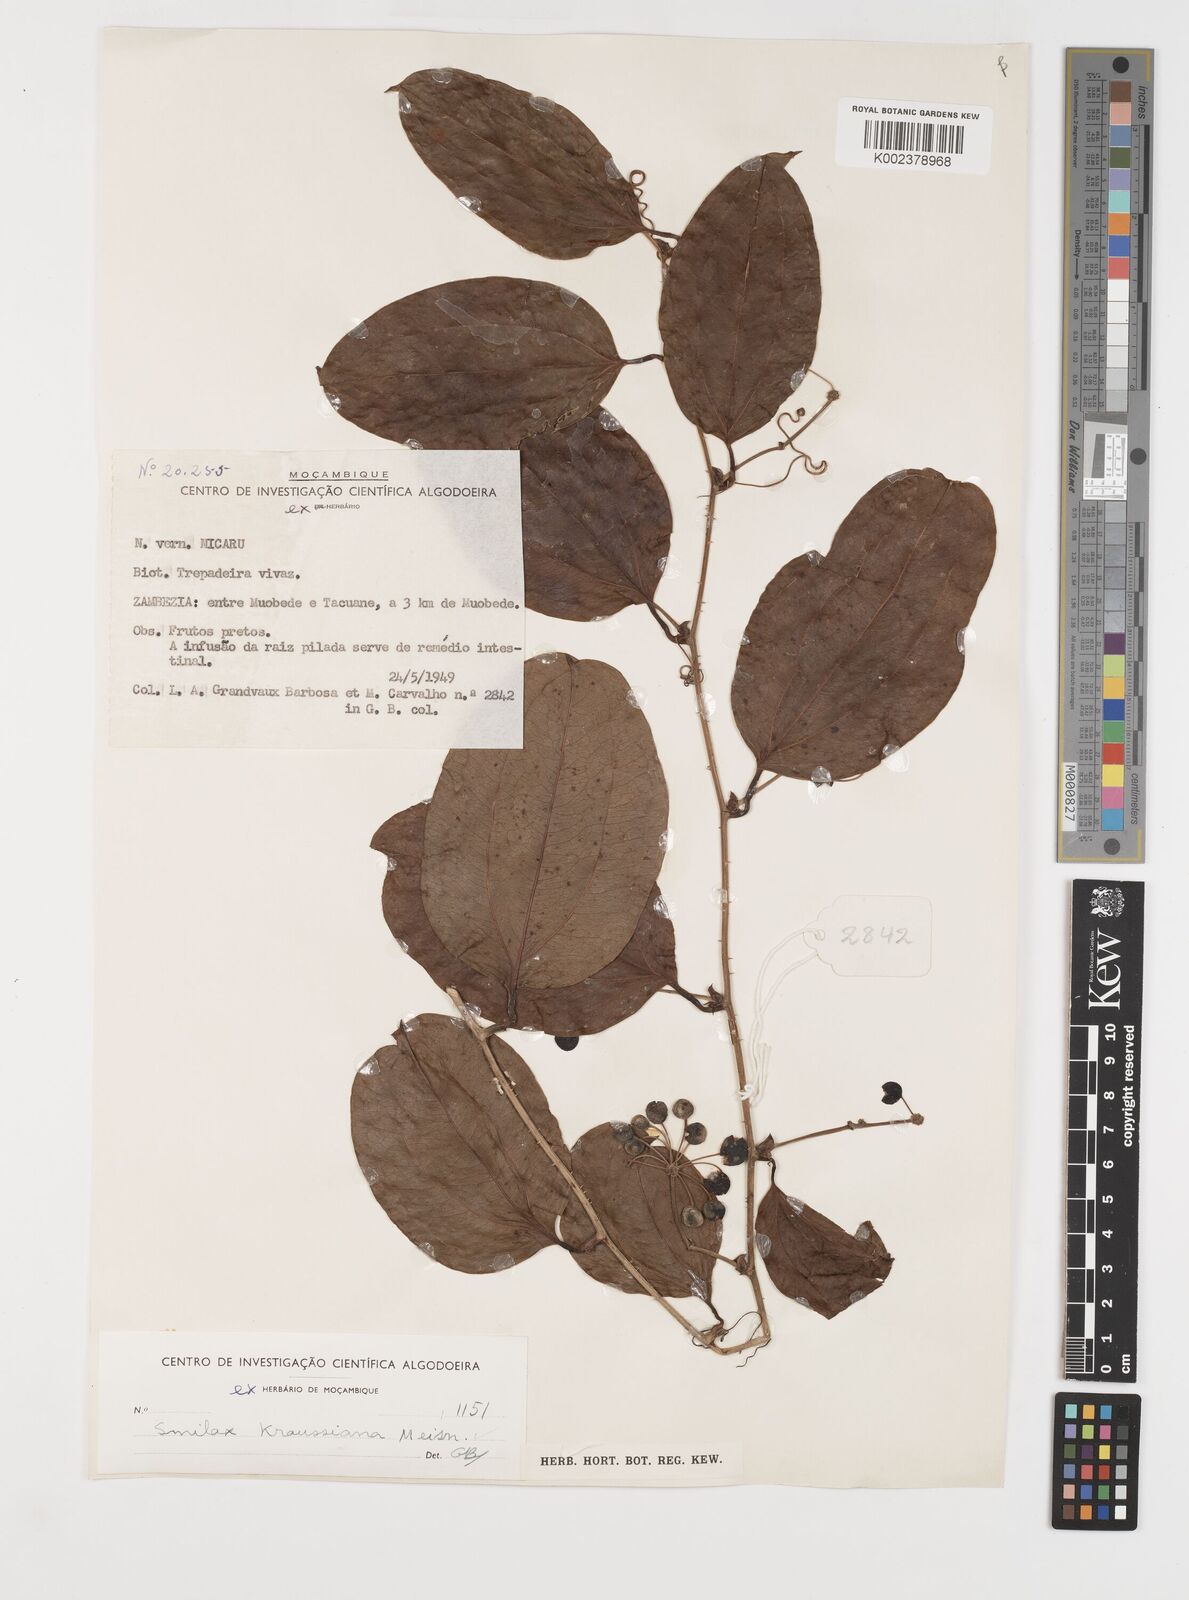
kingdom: Plantae
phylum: Tracheophyta
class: Liliopsida
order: Liliales
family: Smilacaceae
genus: Smilax
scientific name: Smilax anceps
